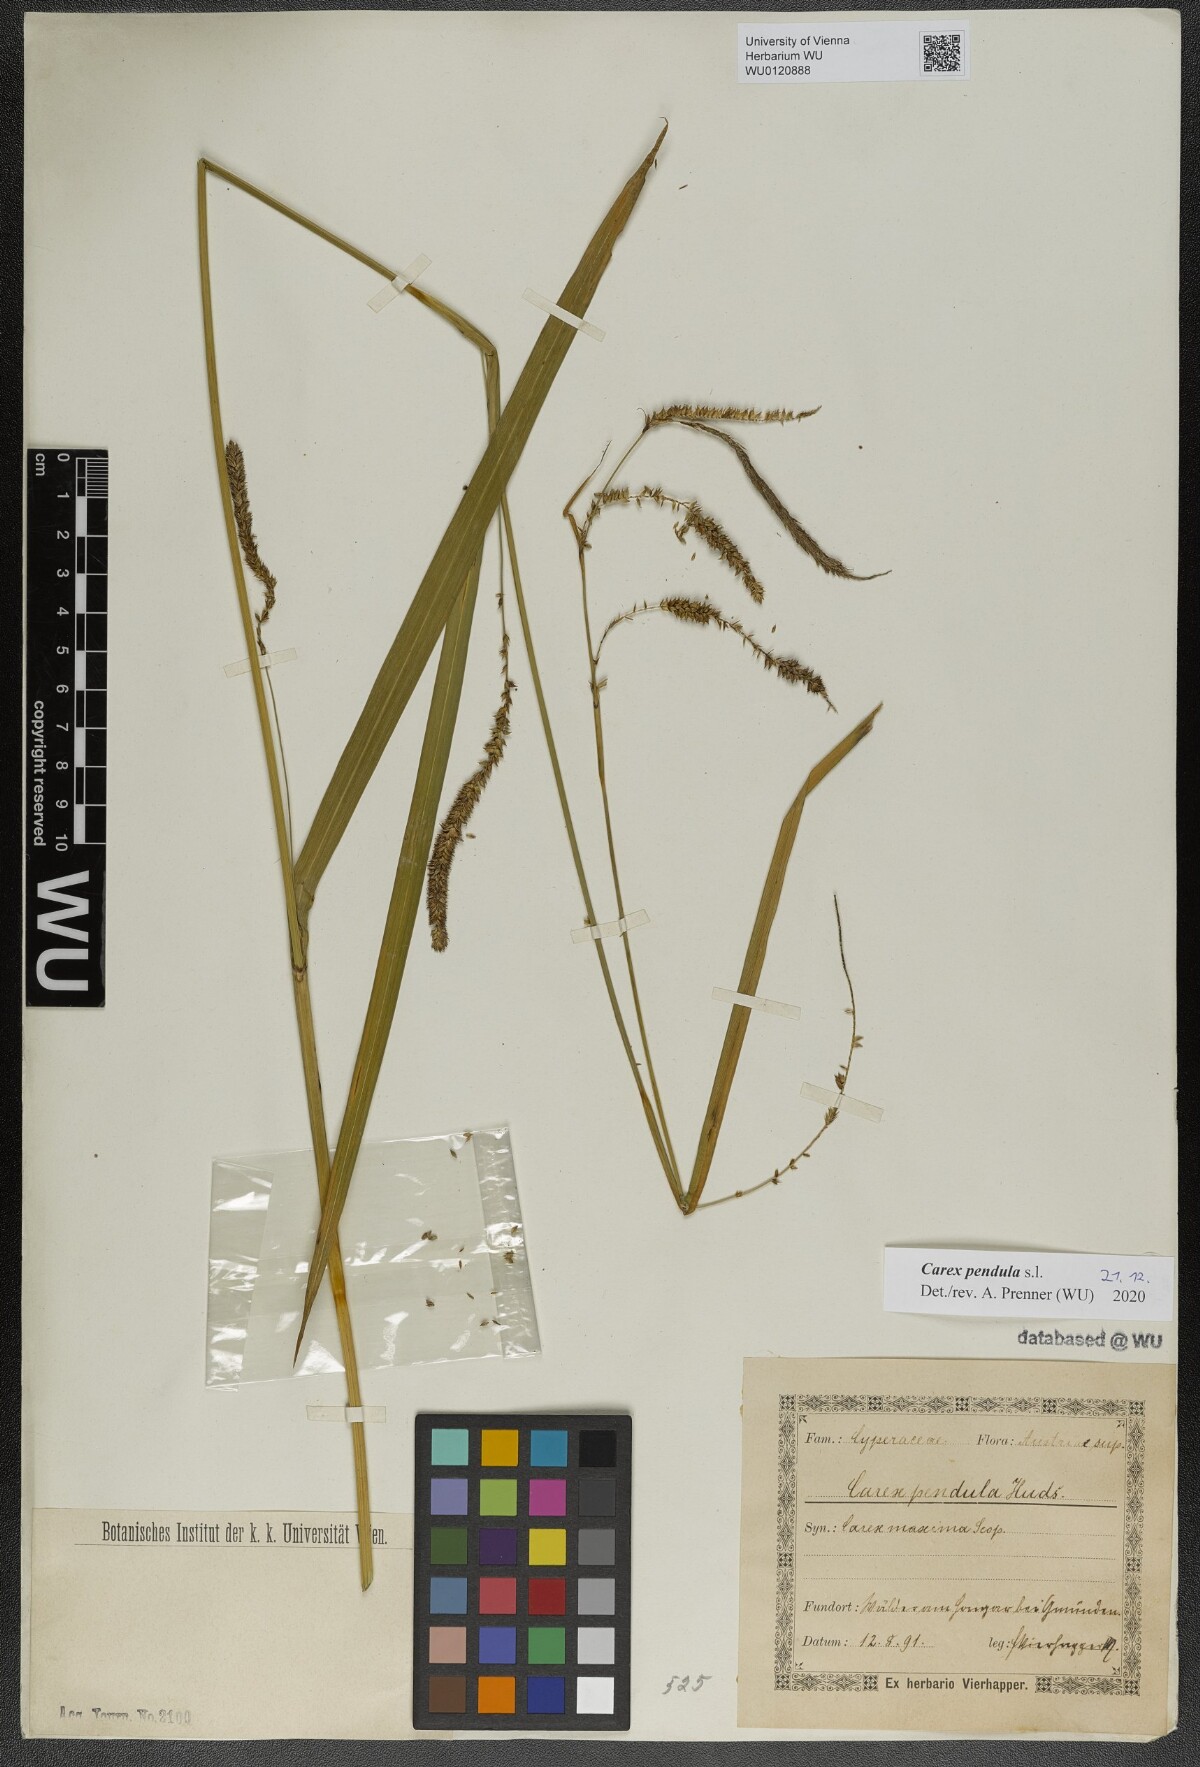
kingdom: Plantae
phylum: Tracheophyta
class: Liliopsida
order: Poales
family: Cyperaceae
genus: Carex
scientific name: Carex agastachys
